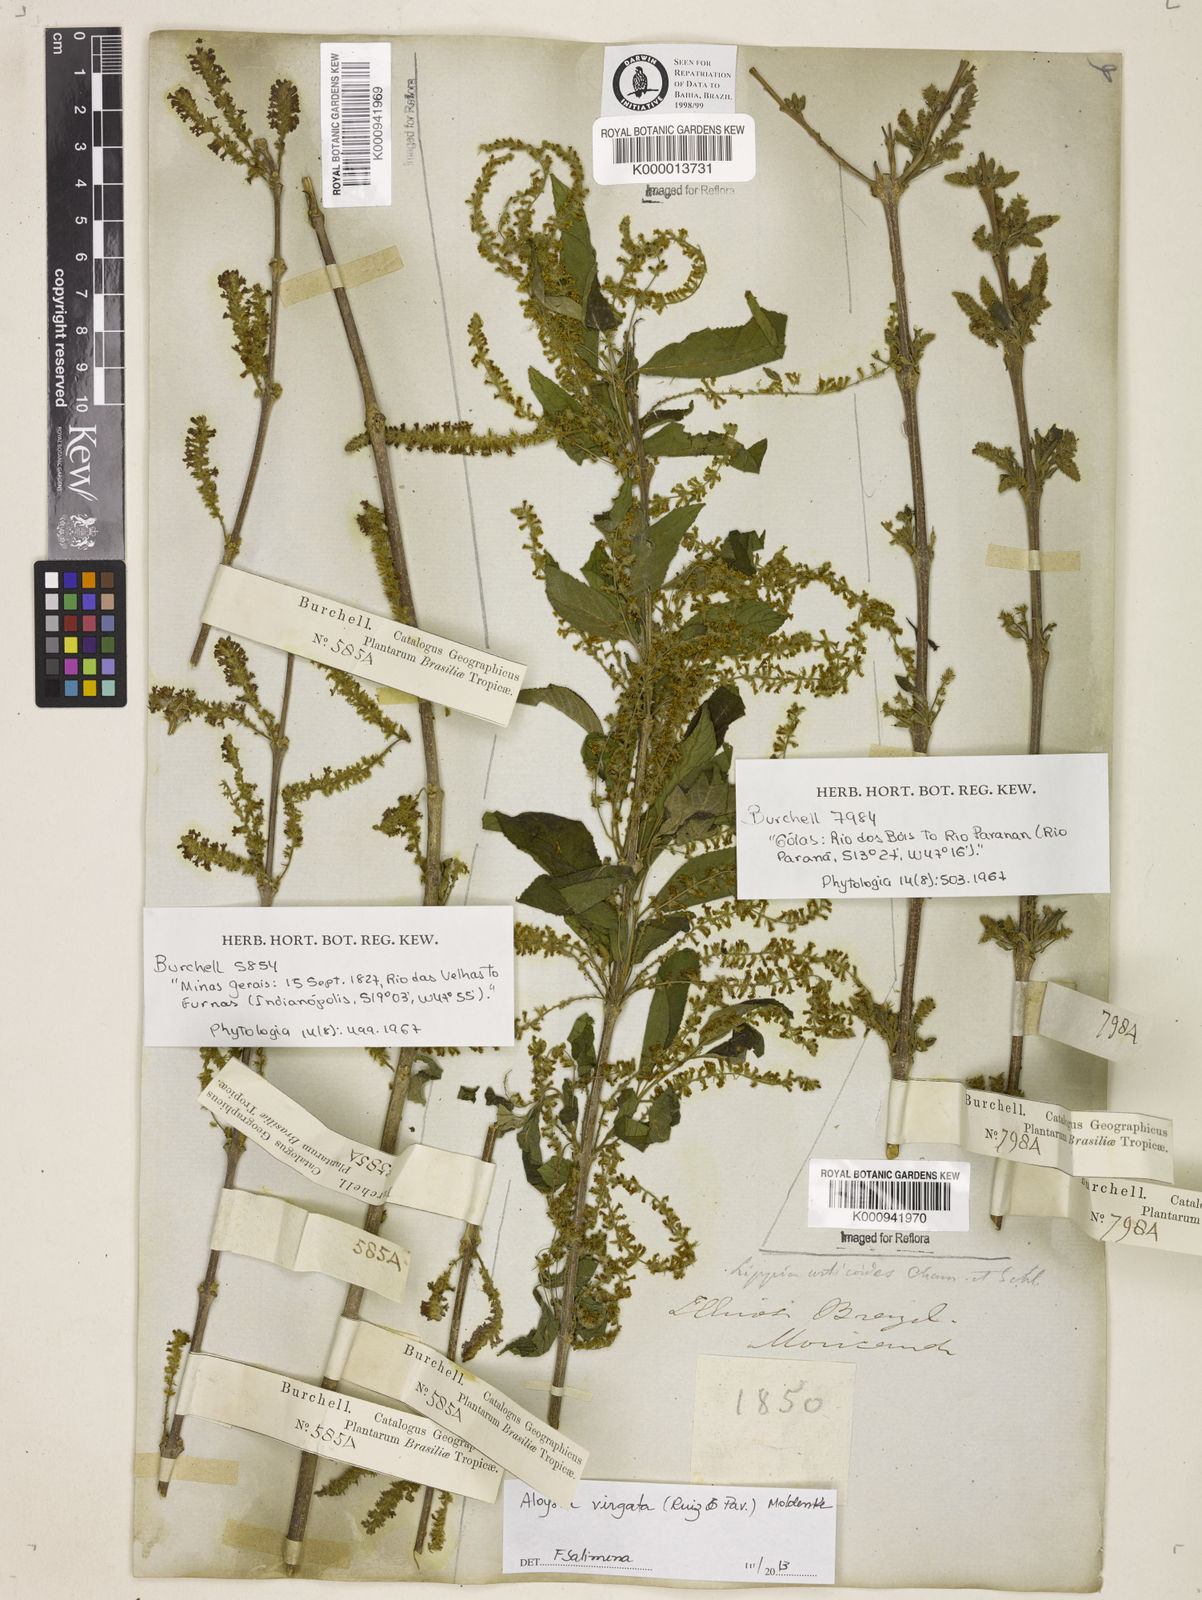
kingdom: Plantae
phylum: Tracheophyta
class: Magnoliopsida
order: Lamiales
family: Verbenaceae
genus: Aloysia
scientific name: Aloysia
